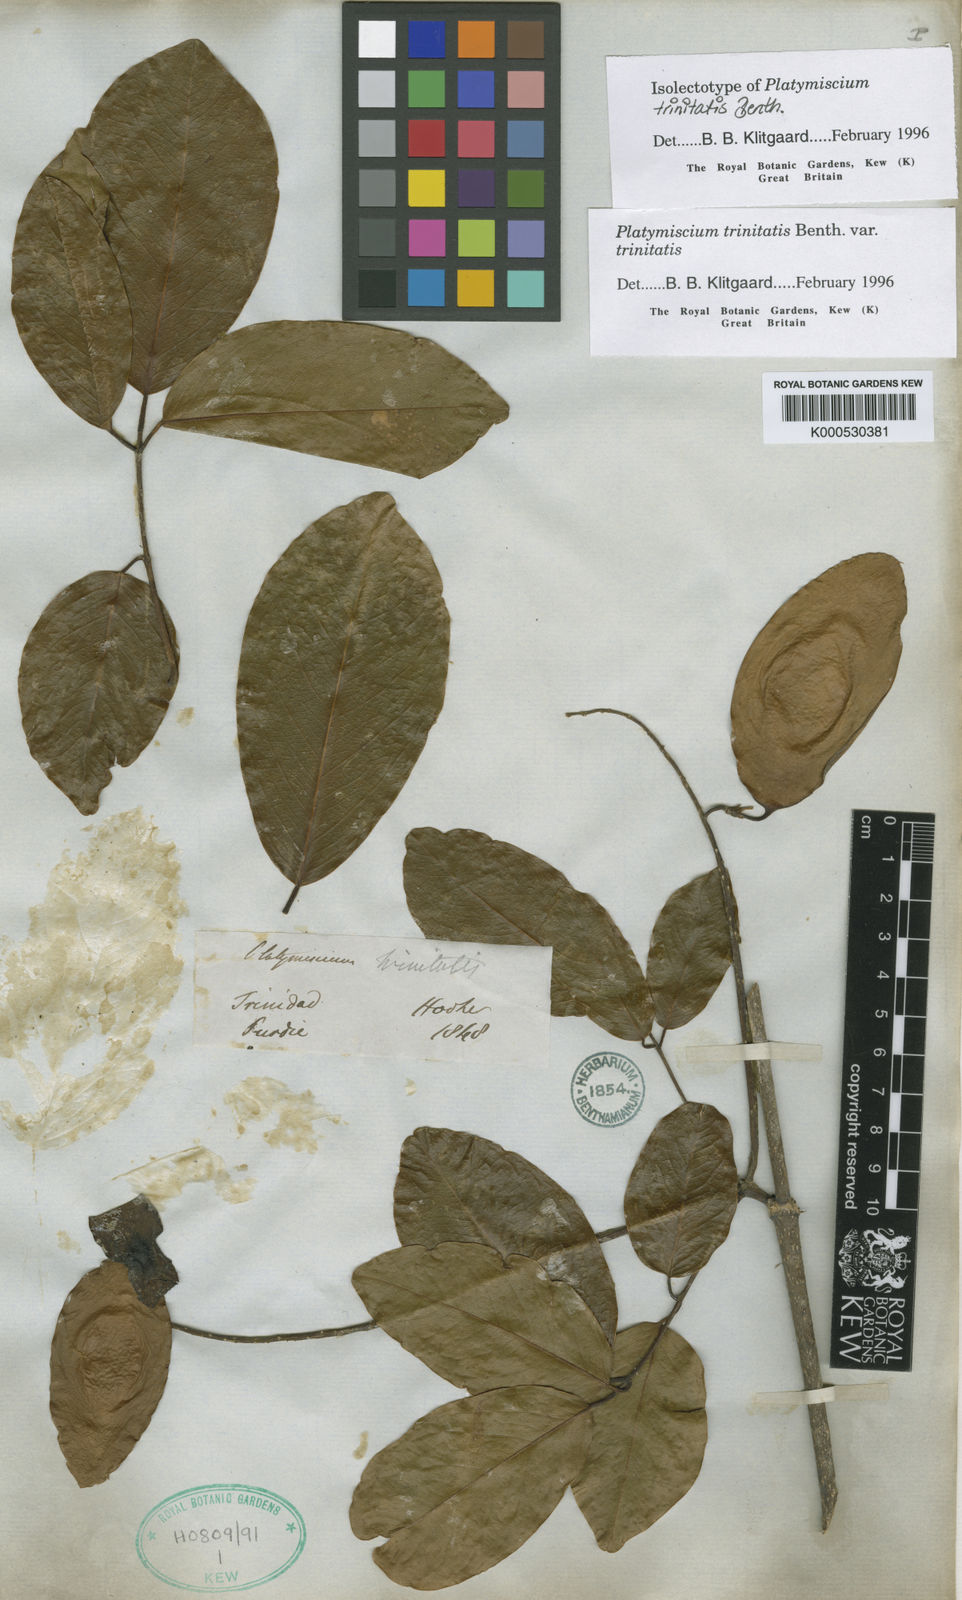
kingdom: Plantae
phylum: Tracheophyta
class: Magnoliopsida
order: Fabales
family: Fabaceae
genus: Platymiscium
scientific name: Platymiscium trinitatis
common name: Trinidad macawood
